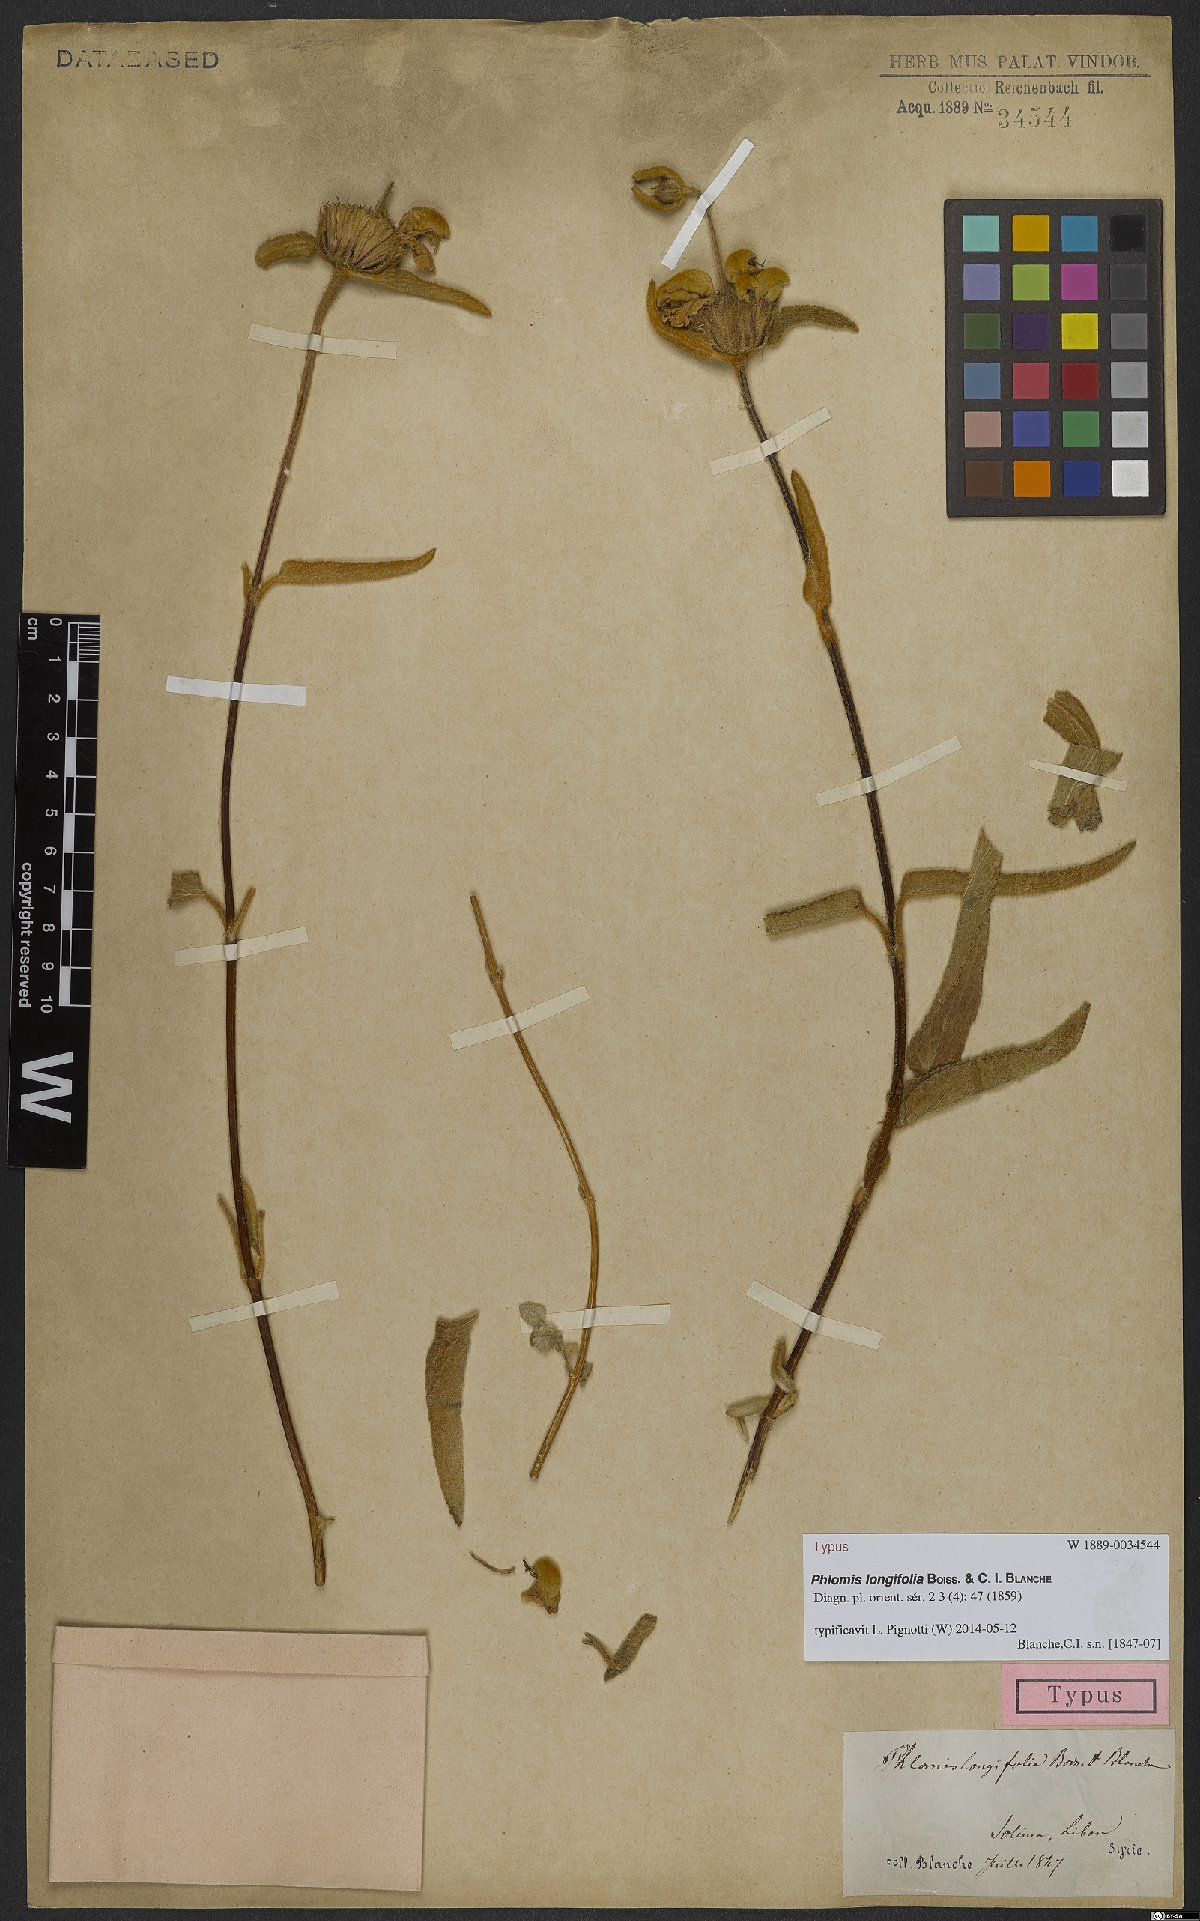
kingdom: Plantae
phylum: Tracheophyta
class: Magnoliopsida
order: Lamiales
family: Lamiaceae
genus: Phlomis
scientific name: Phlomis longifolia
